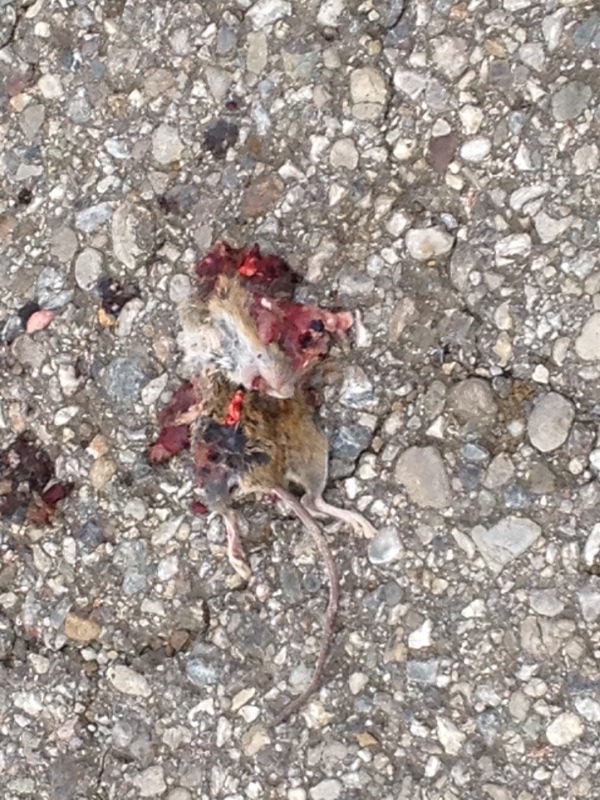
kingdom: Animalia
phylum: Chordata
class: Mammalia
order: Rodentia
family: Muridae
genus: Apodemus
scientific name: Apodemus
